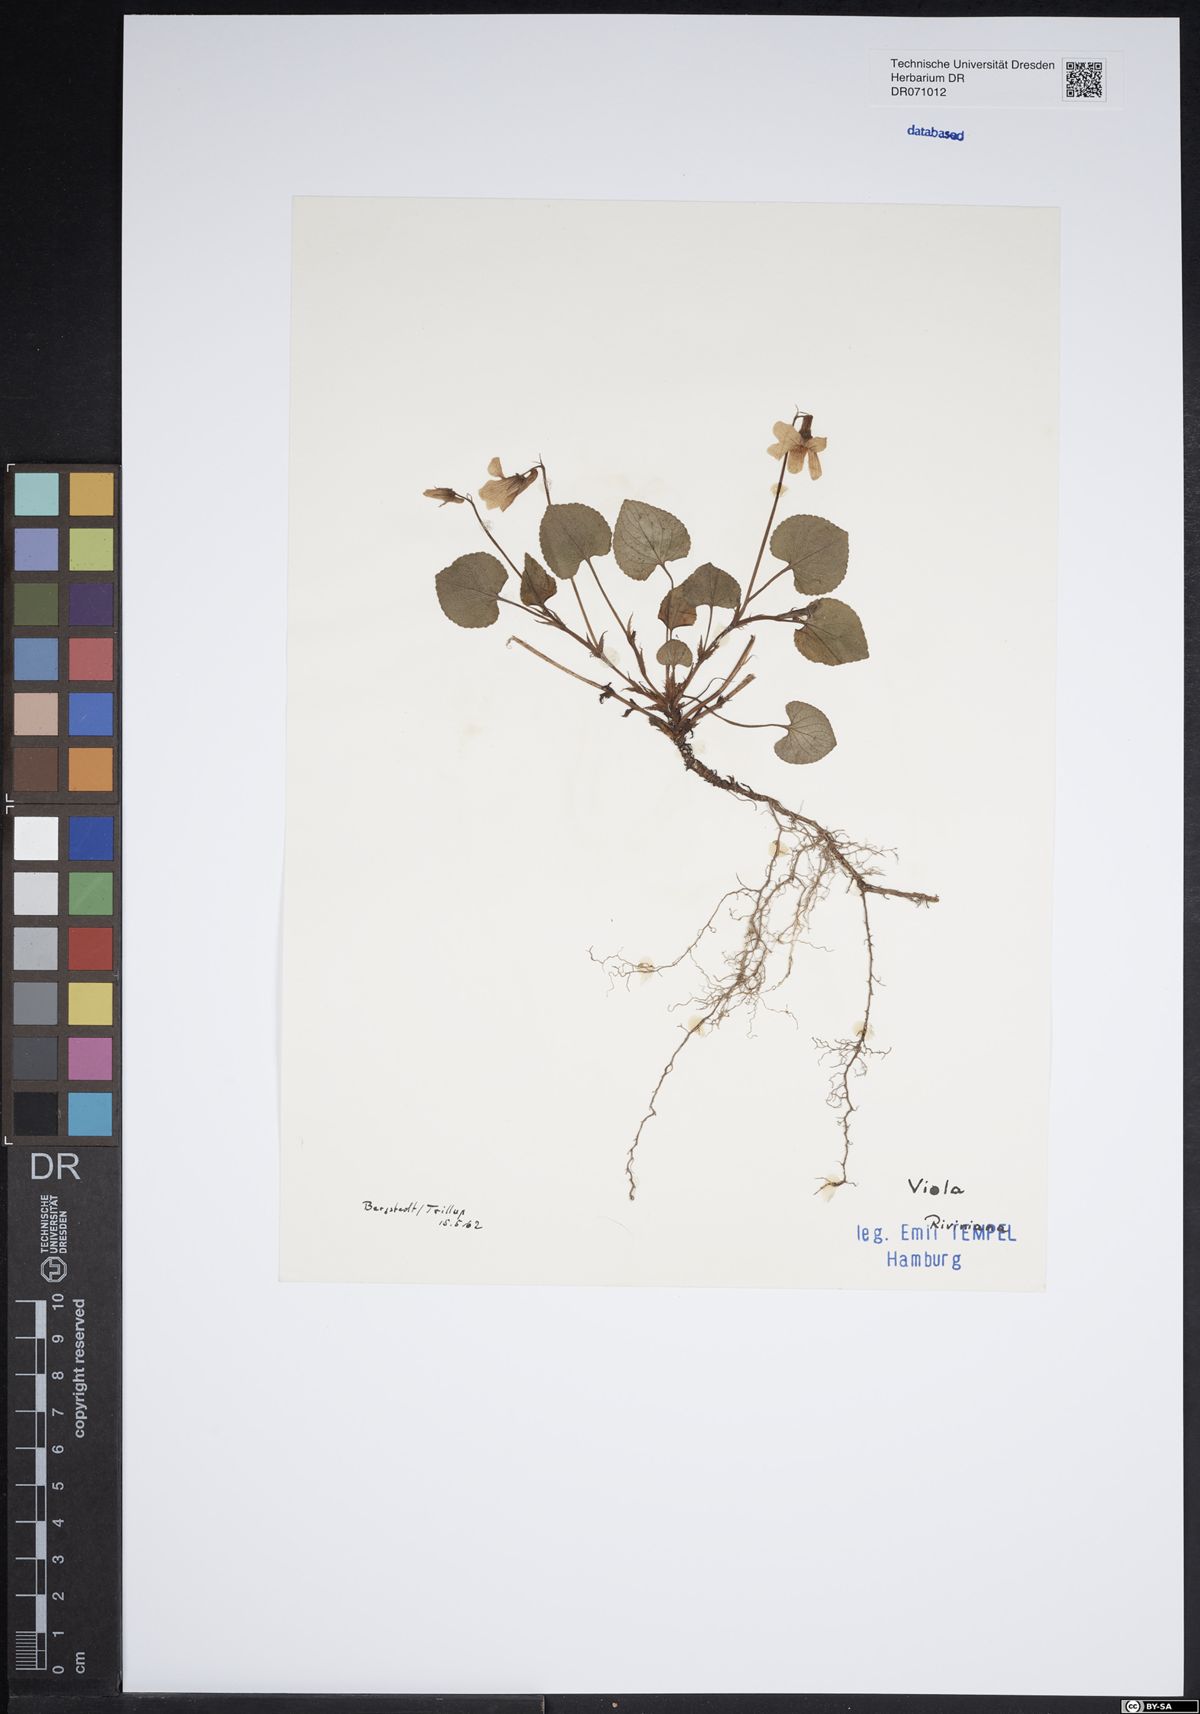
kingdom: Plantae
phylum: Tracheophyta
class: Magnoliopsida
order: Malpighiales
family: Violaceae
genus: Viola
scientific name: Viola riviniana
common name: Common dog-violet
